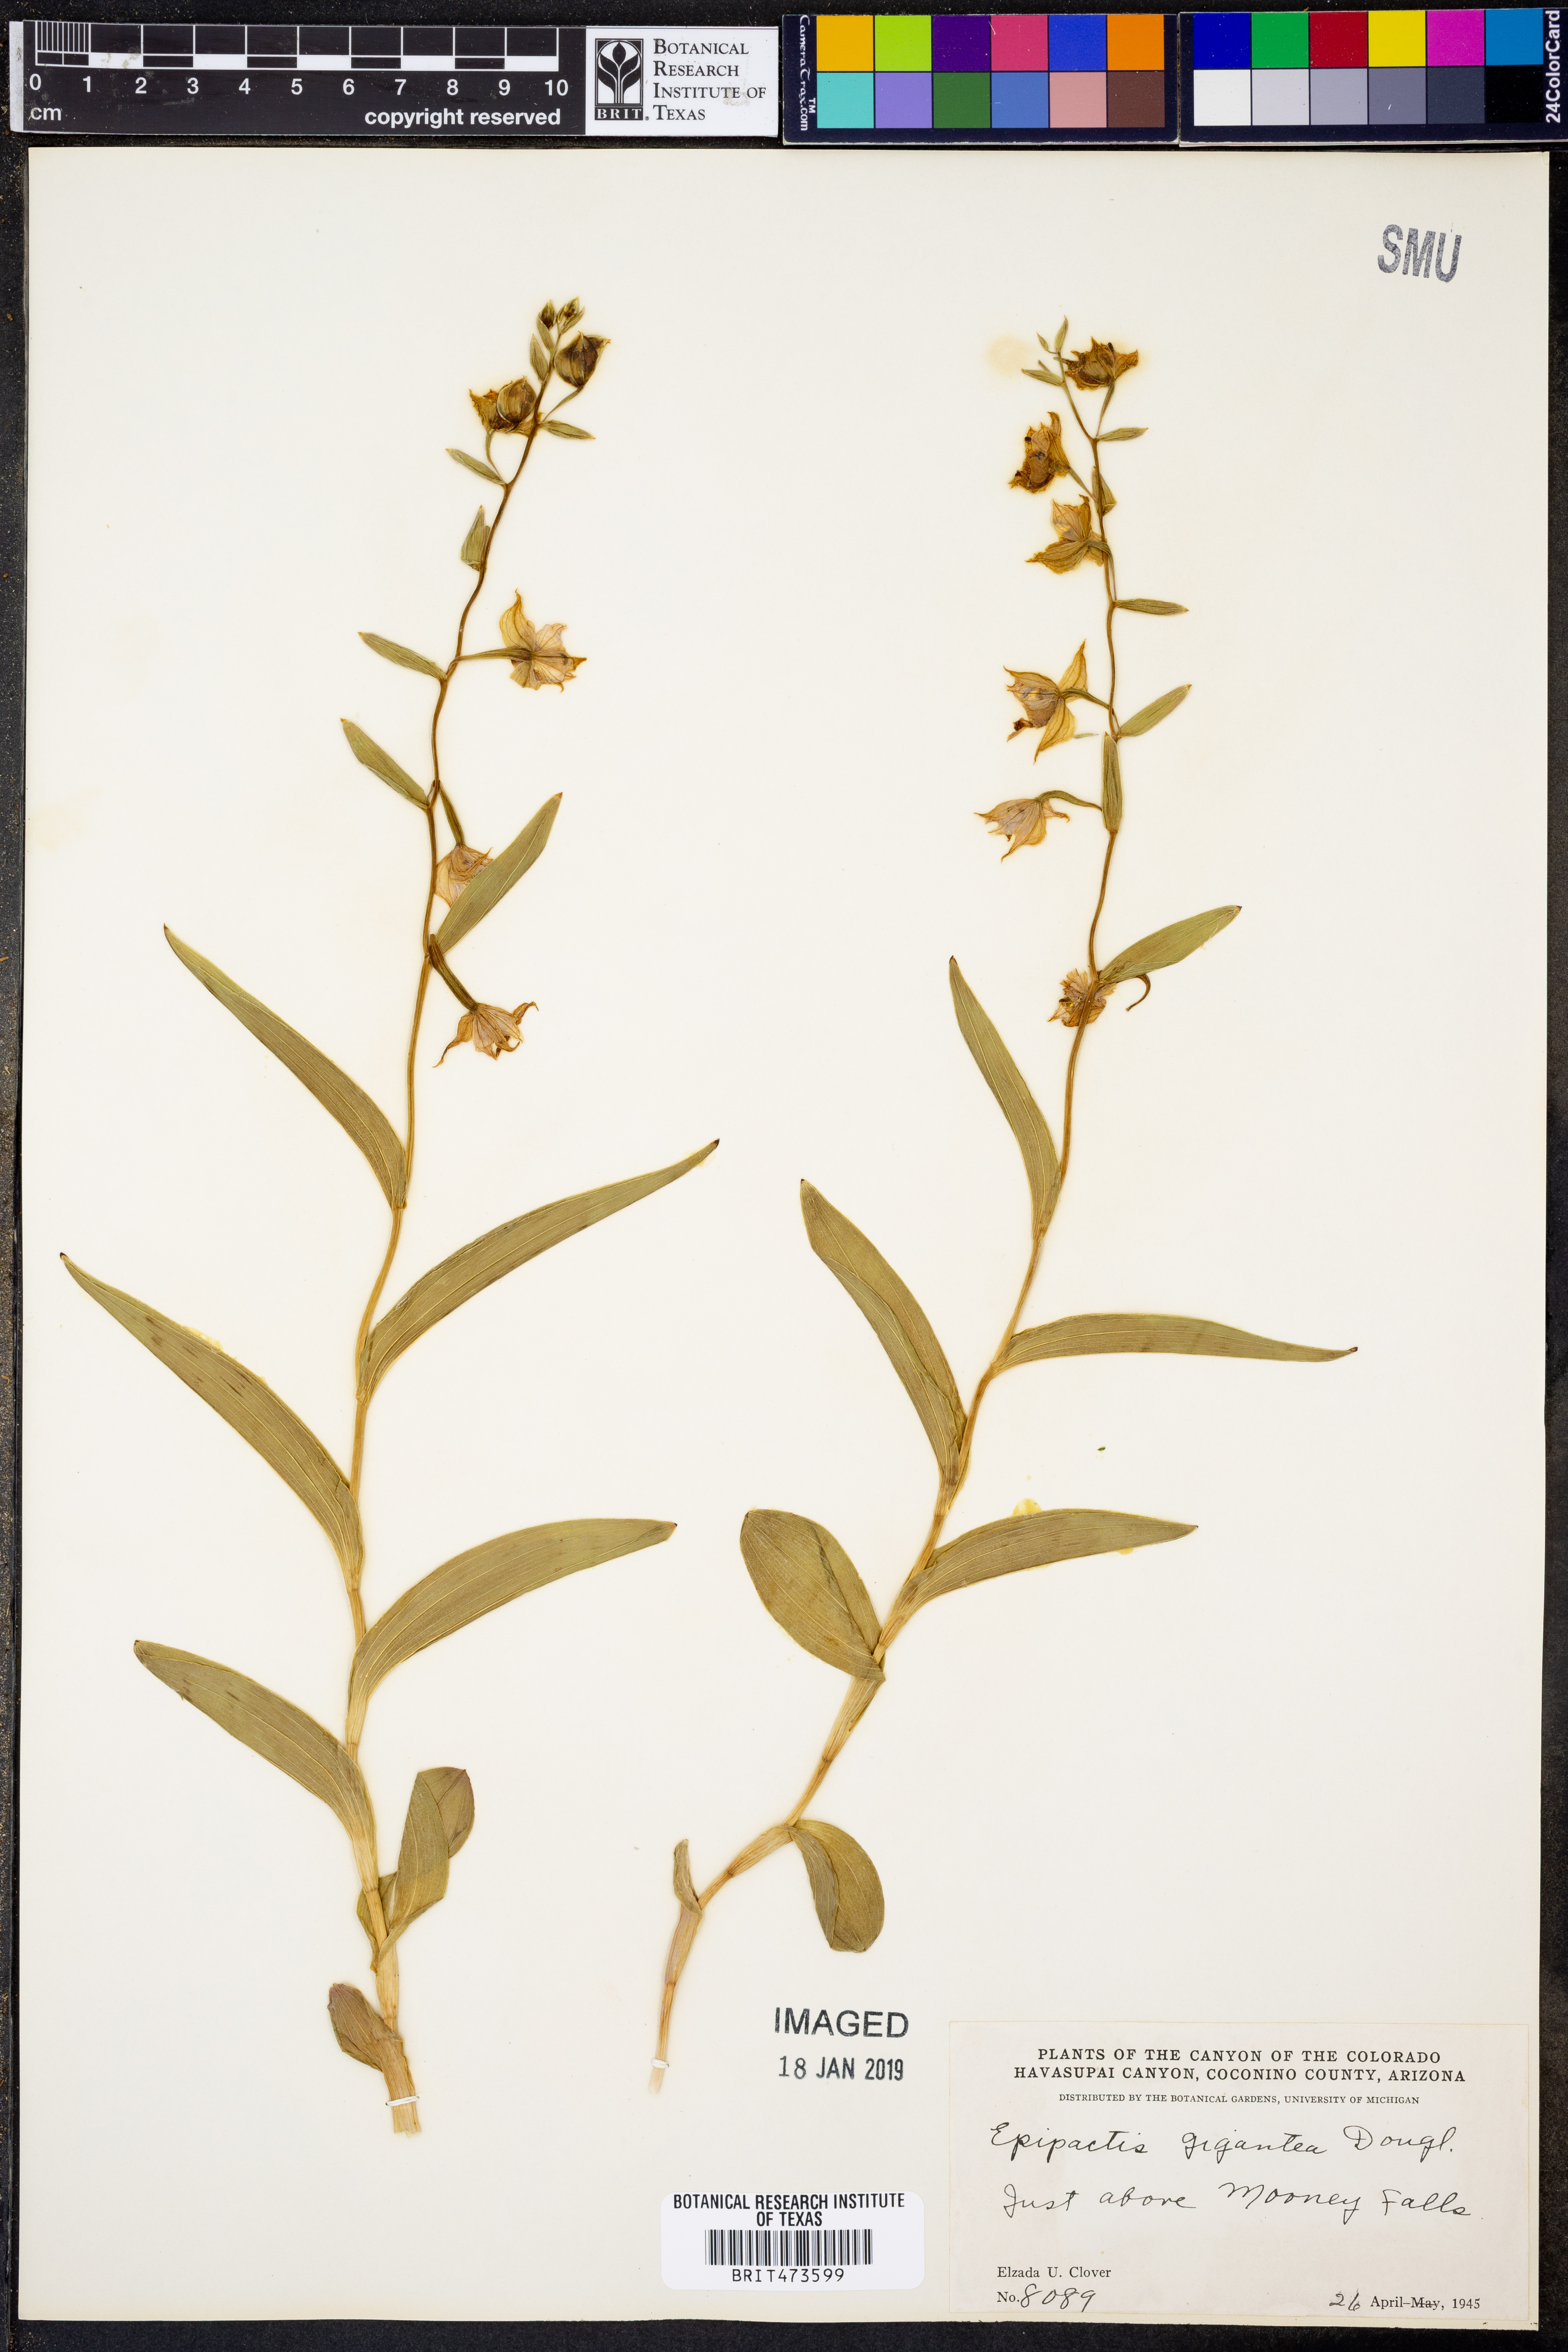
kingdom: Plantae
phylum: Tracheophyta
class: Liliopsida
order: Asparagales
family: Orchidaceae
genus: Epipactis
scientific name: Epipactis gigantea
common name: Chatterbox
